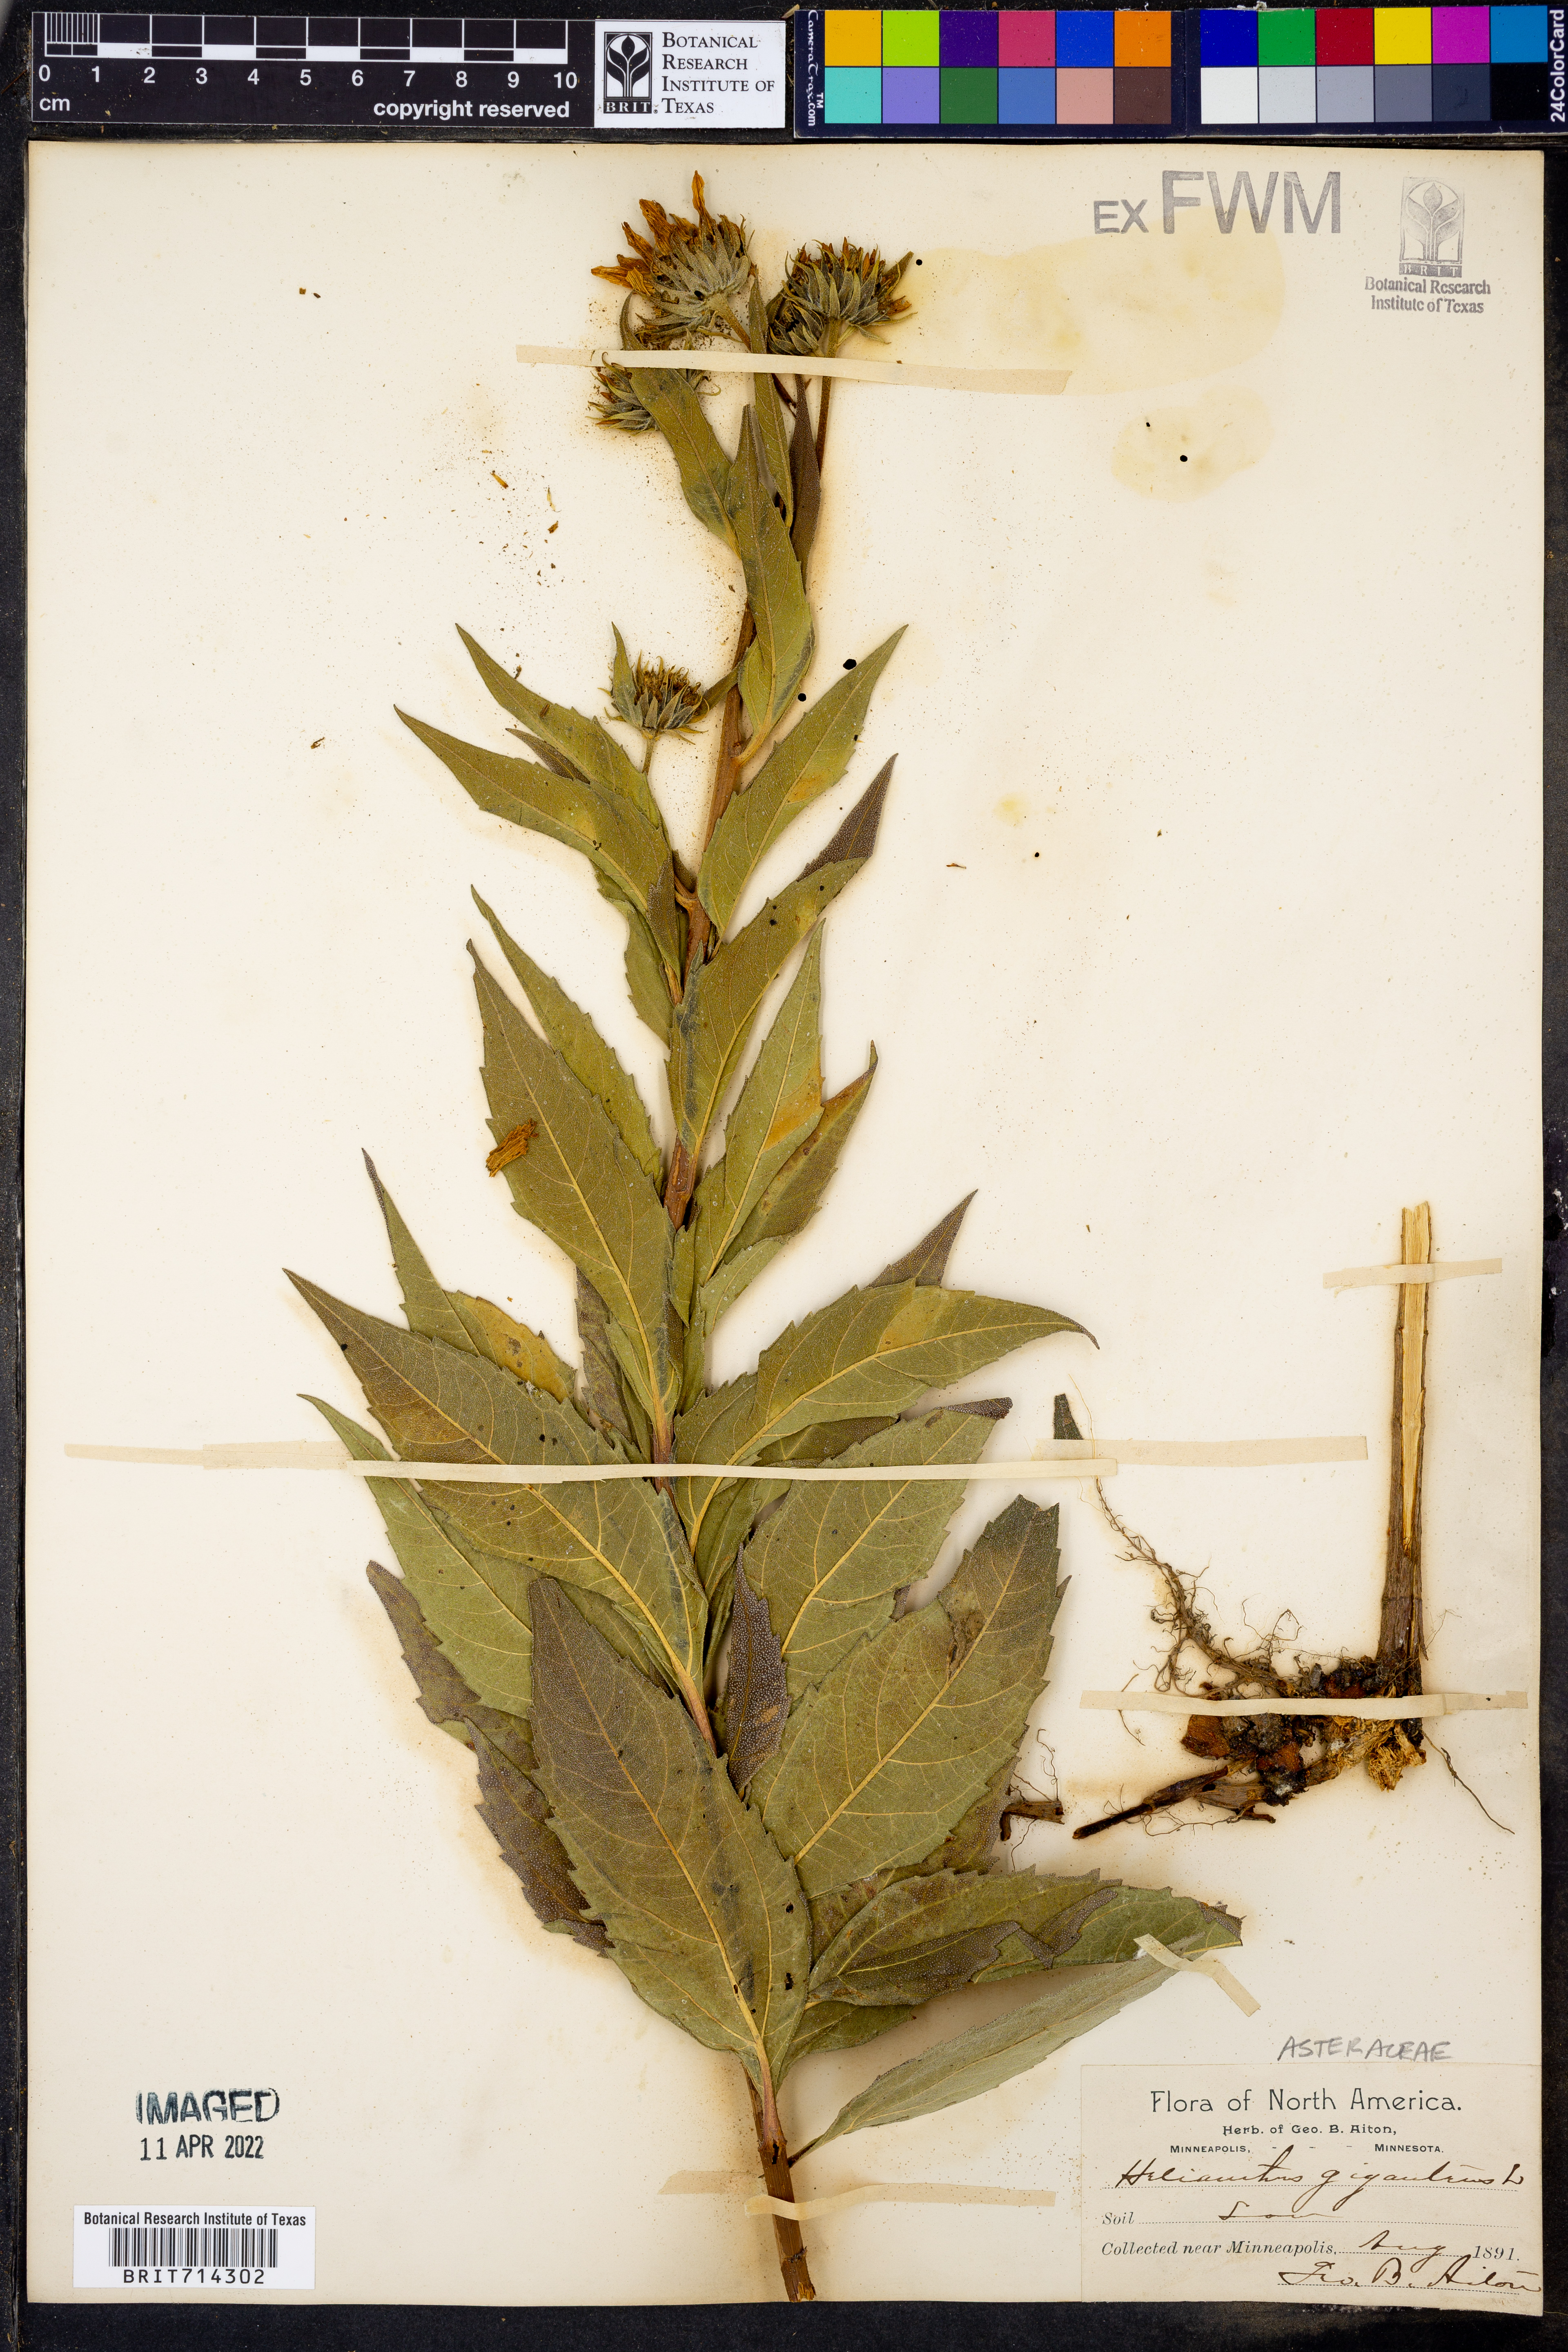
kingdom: Plantae
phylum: Tracheophyta
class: Magnoliopsida
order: Asterales
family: Asteraceae
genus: Helianthus
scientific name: Helianthus giganteus
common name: Giant sunflower
